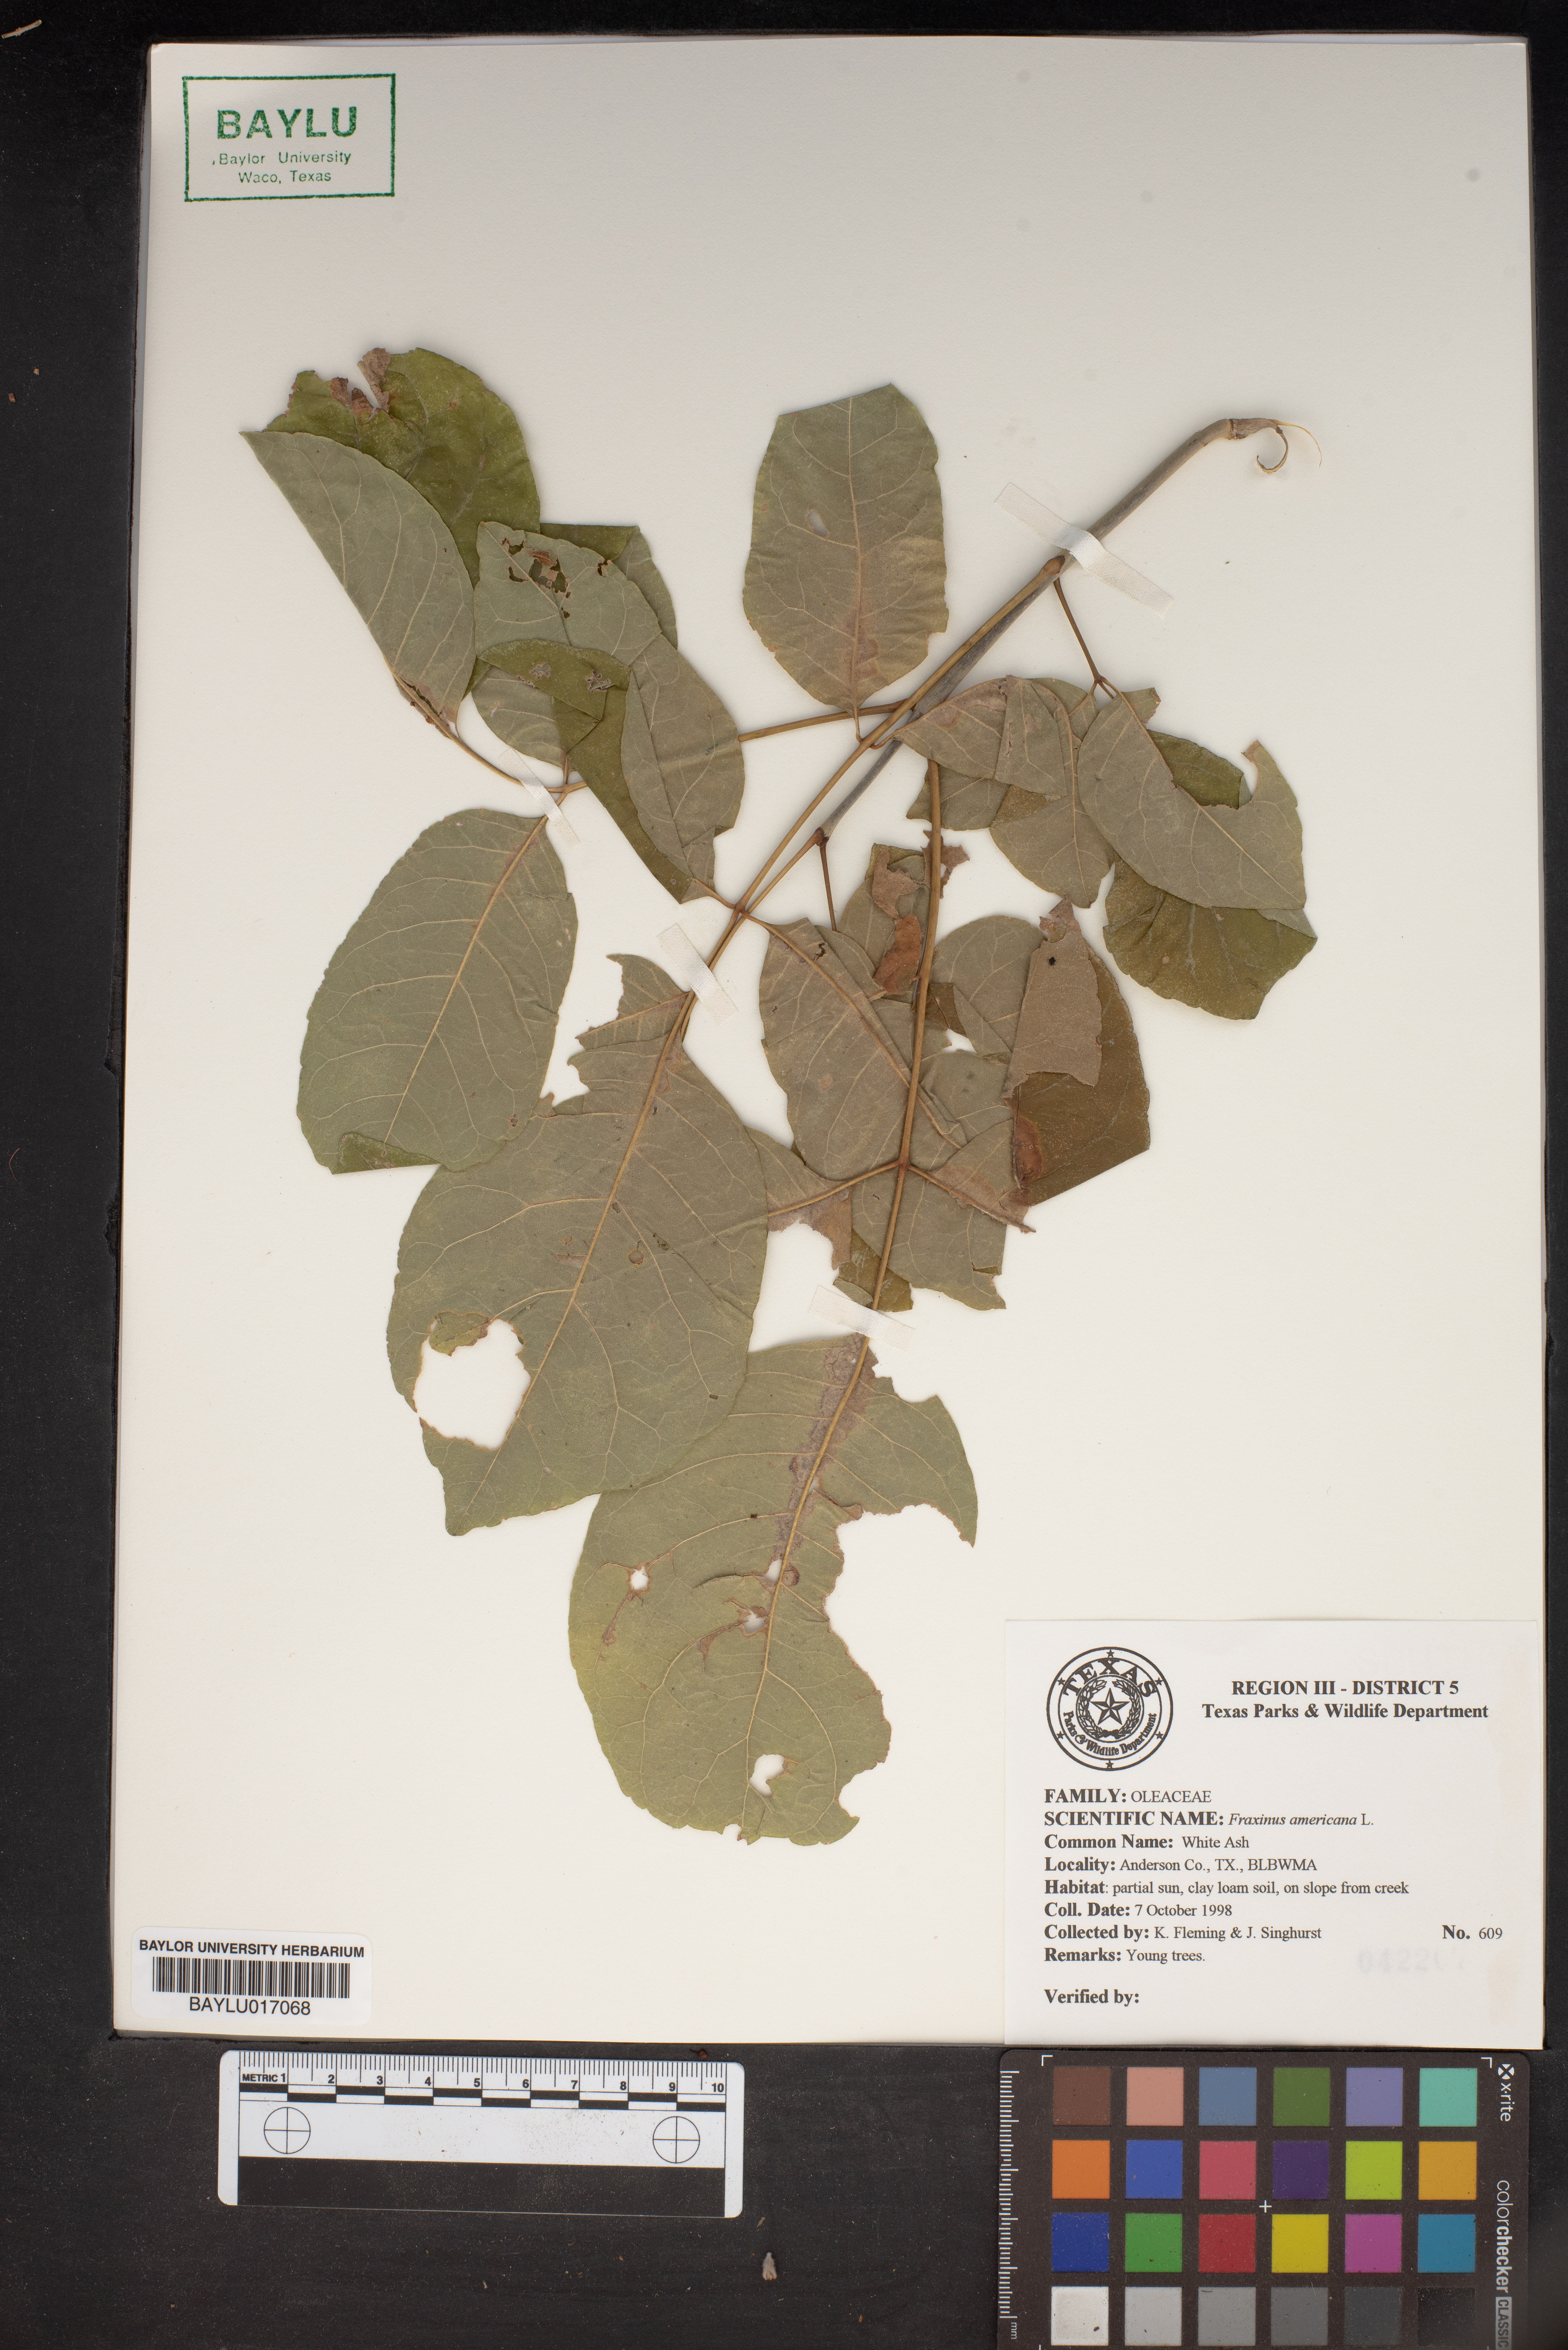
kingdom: Plantae
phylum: Tracheophyta
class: Magnoliopsida
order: Lamiales
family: Oleaceae
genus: Fraxinus
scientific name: Fraxinus americana
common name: White ash
